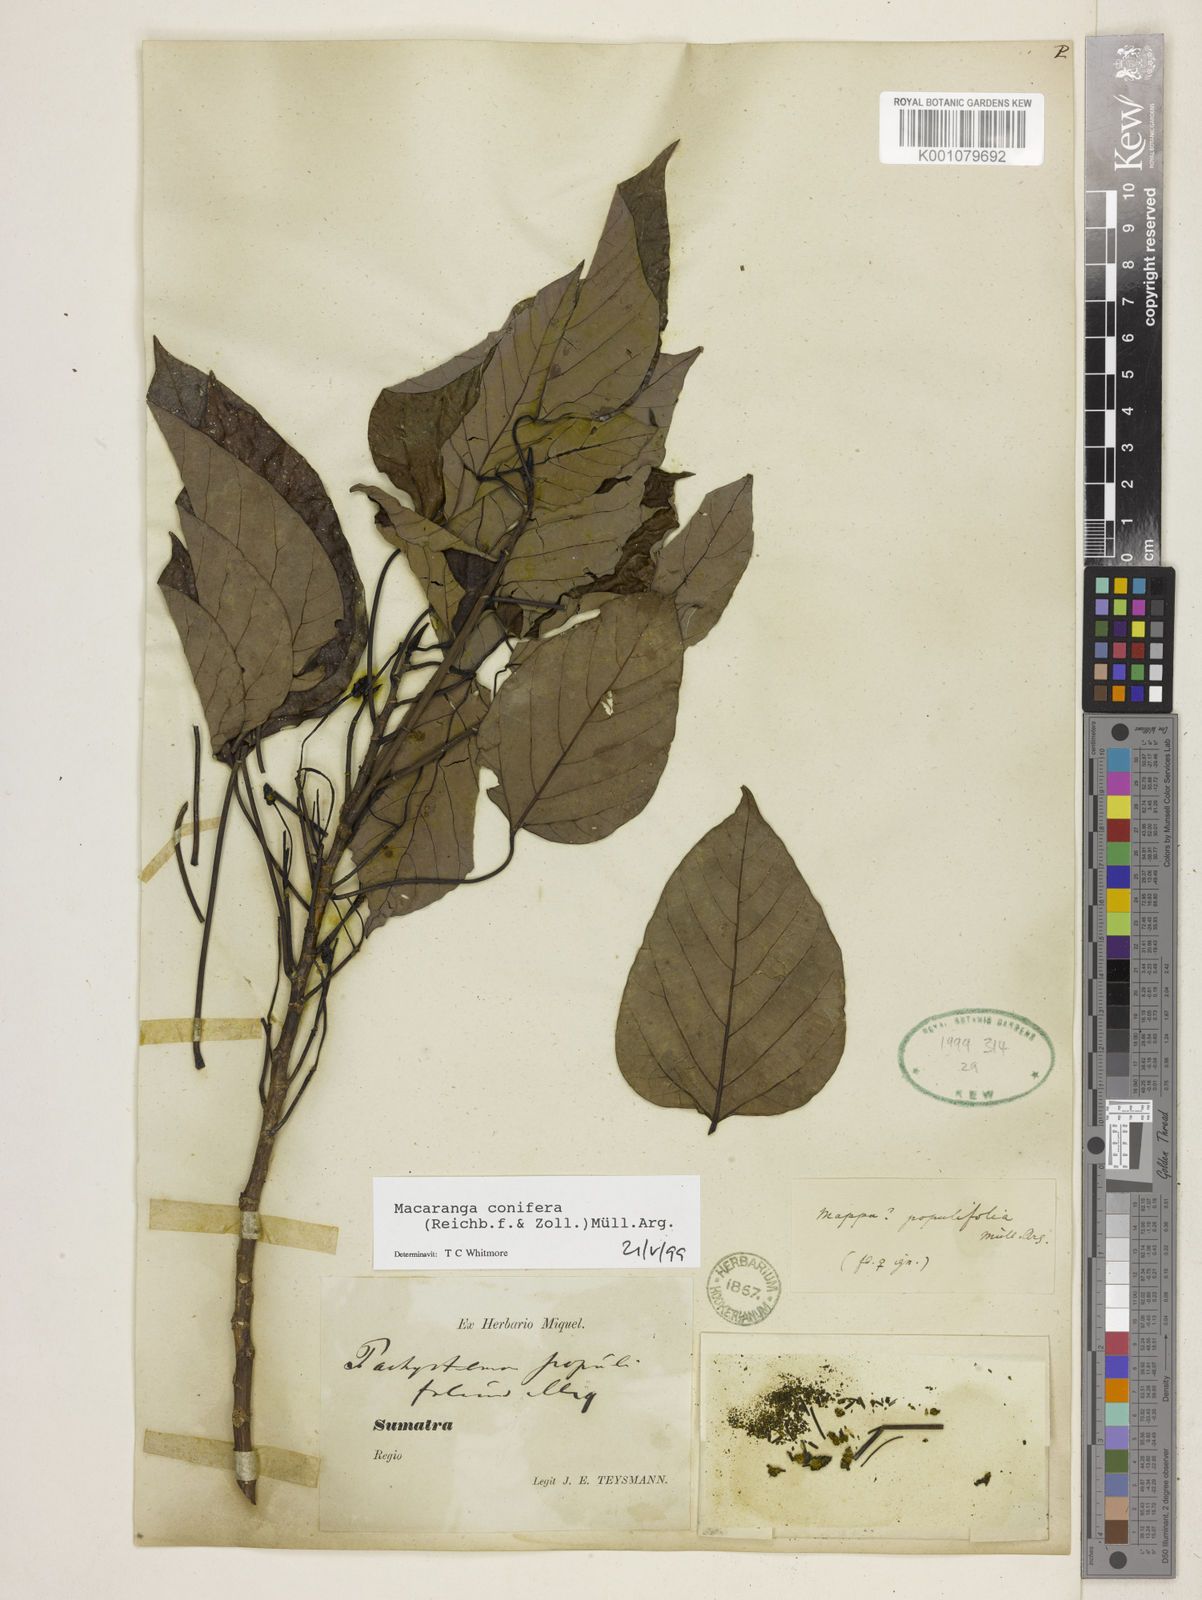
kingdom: Plantae
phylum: Tracheophyta
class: Magnoliopsida
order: Malpighiales
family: Euphorbiaceae
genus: Macaranga
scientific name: Macaranga conifera
